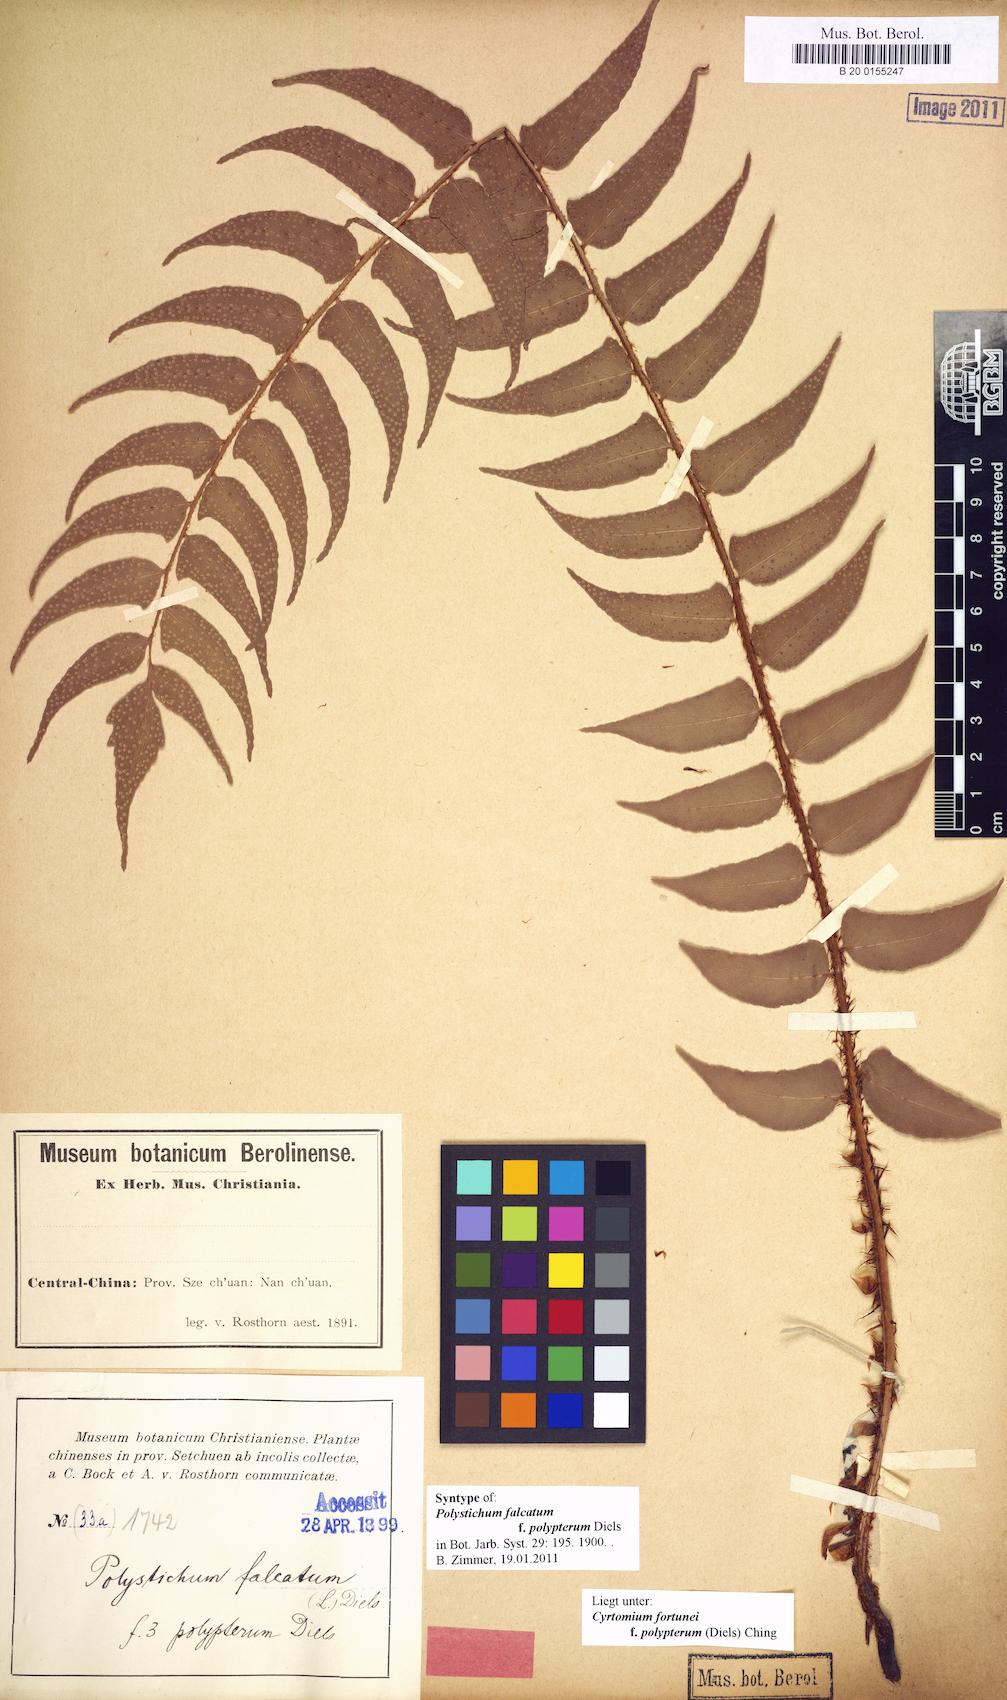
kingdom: Plantae
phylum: Tracheophyta
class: Polypodiopsida
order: Polypodiales
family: Dryopteridaceae
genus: Cyrtomium
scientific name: Cyrtomium fortunei
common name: Asian netvein hollyfern
